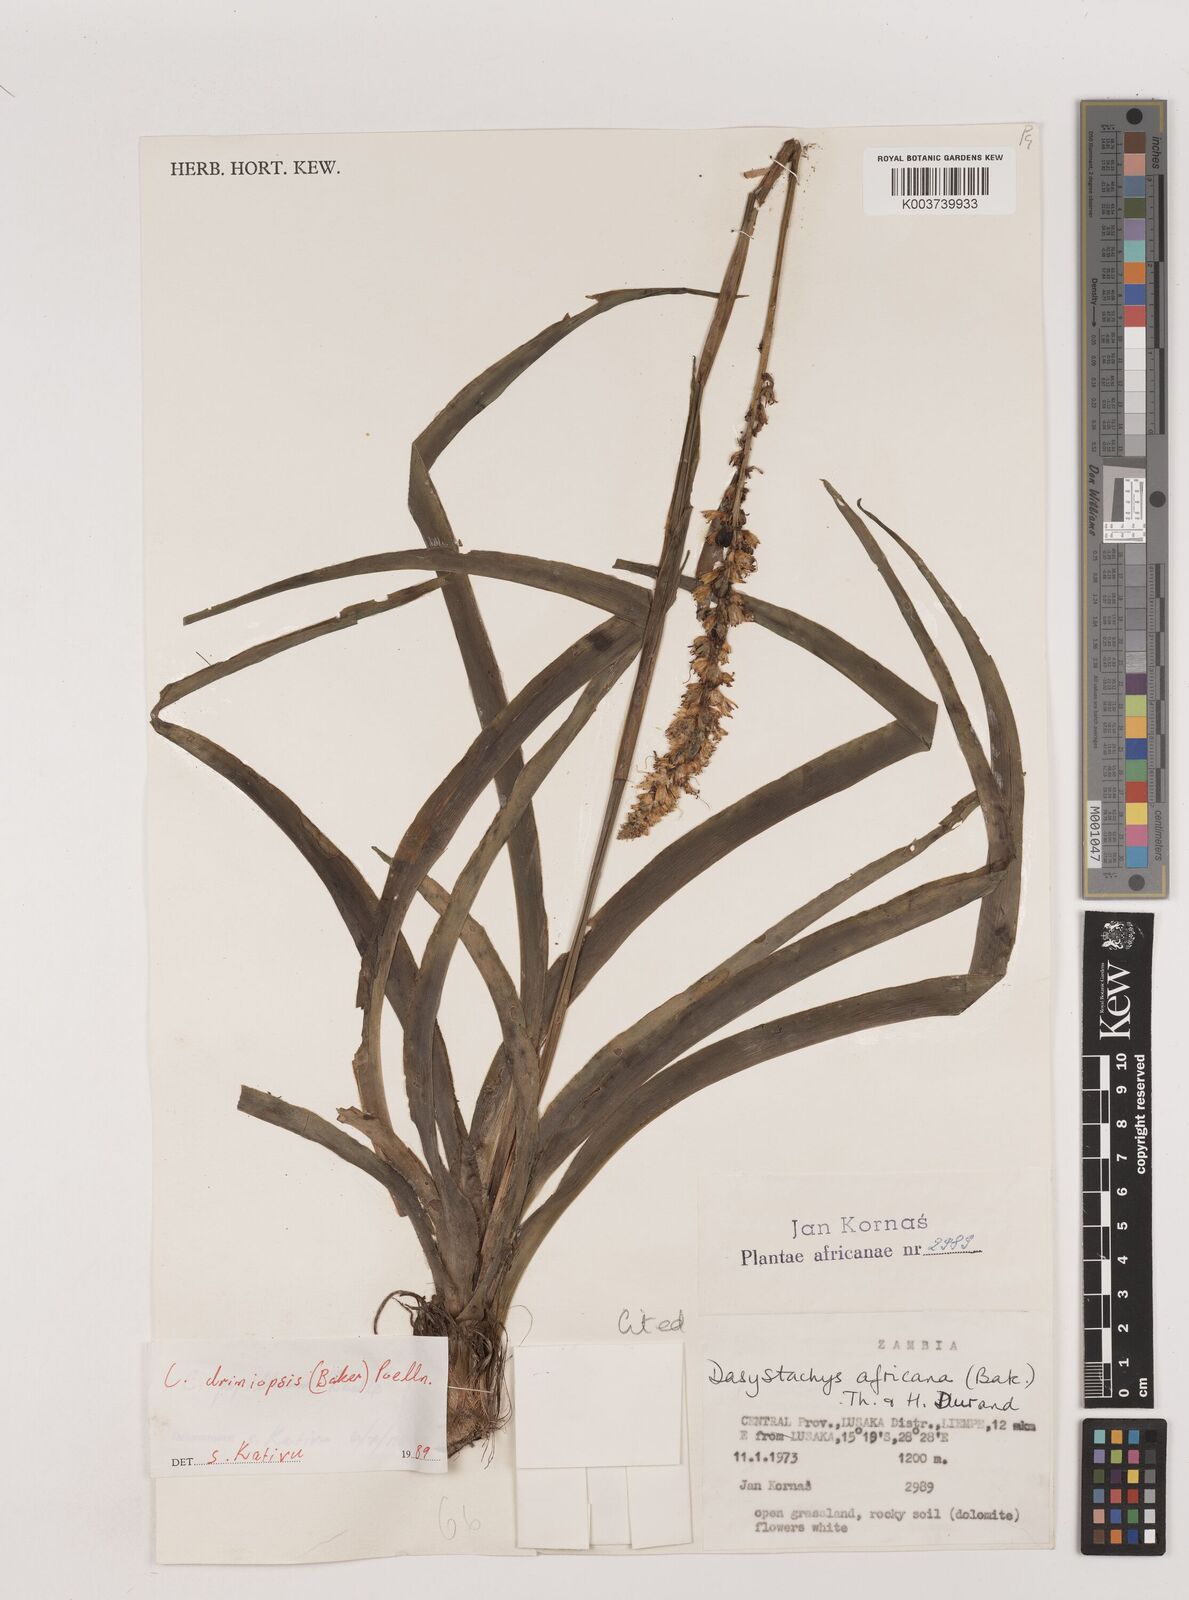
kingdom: Plantae
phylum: Tracheophyta
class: Liliopsida
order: Asparagales
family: Asparagaceae
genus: Chlorophytum
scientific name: Chlorophytum longifolium
